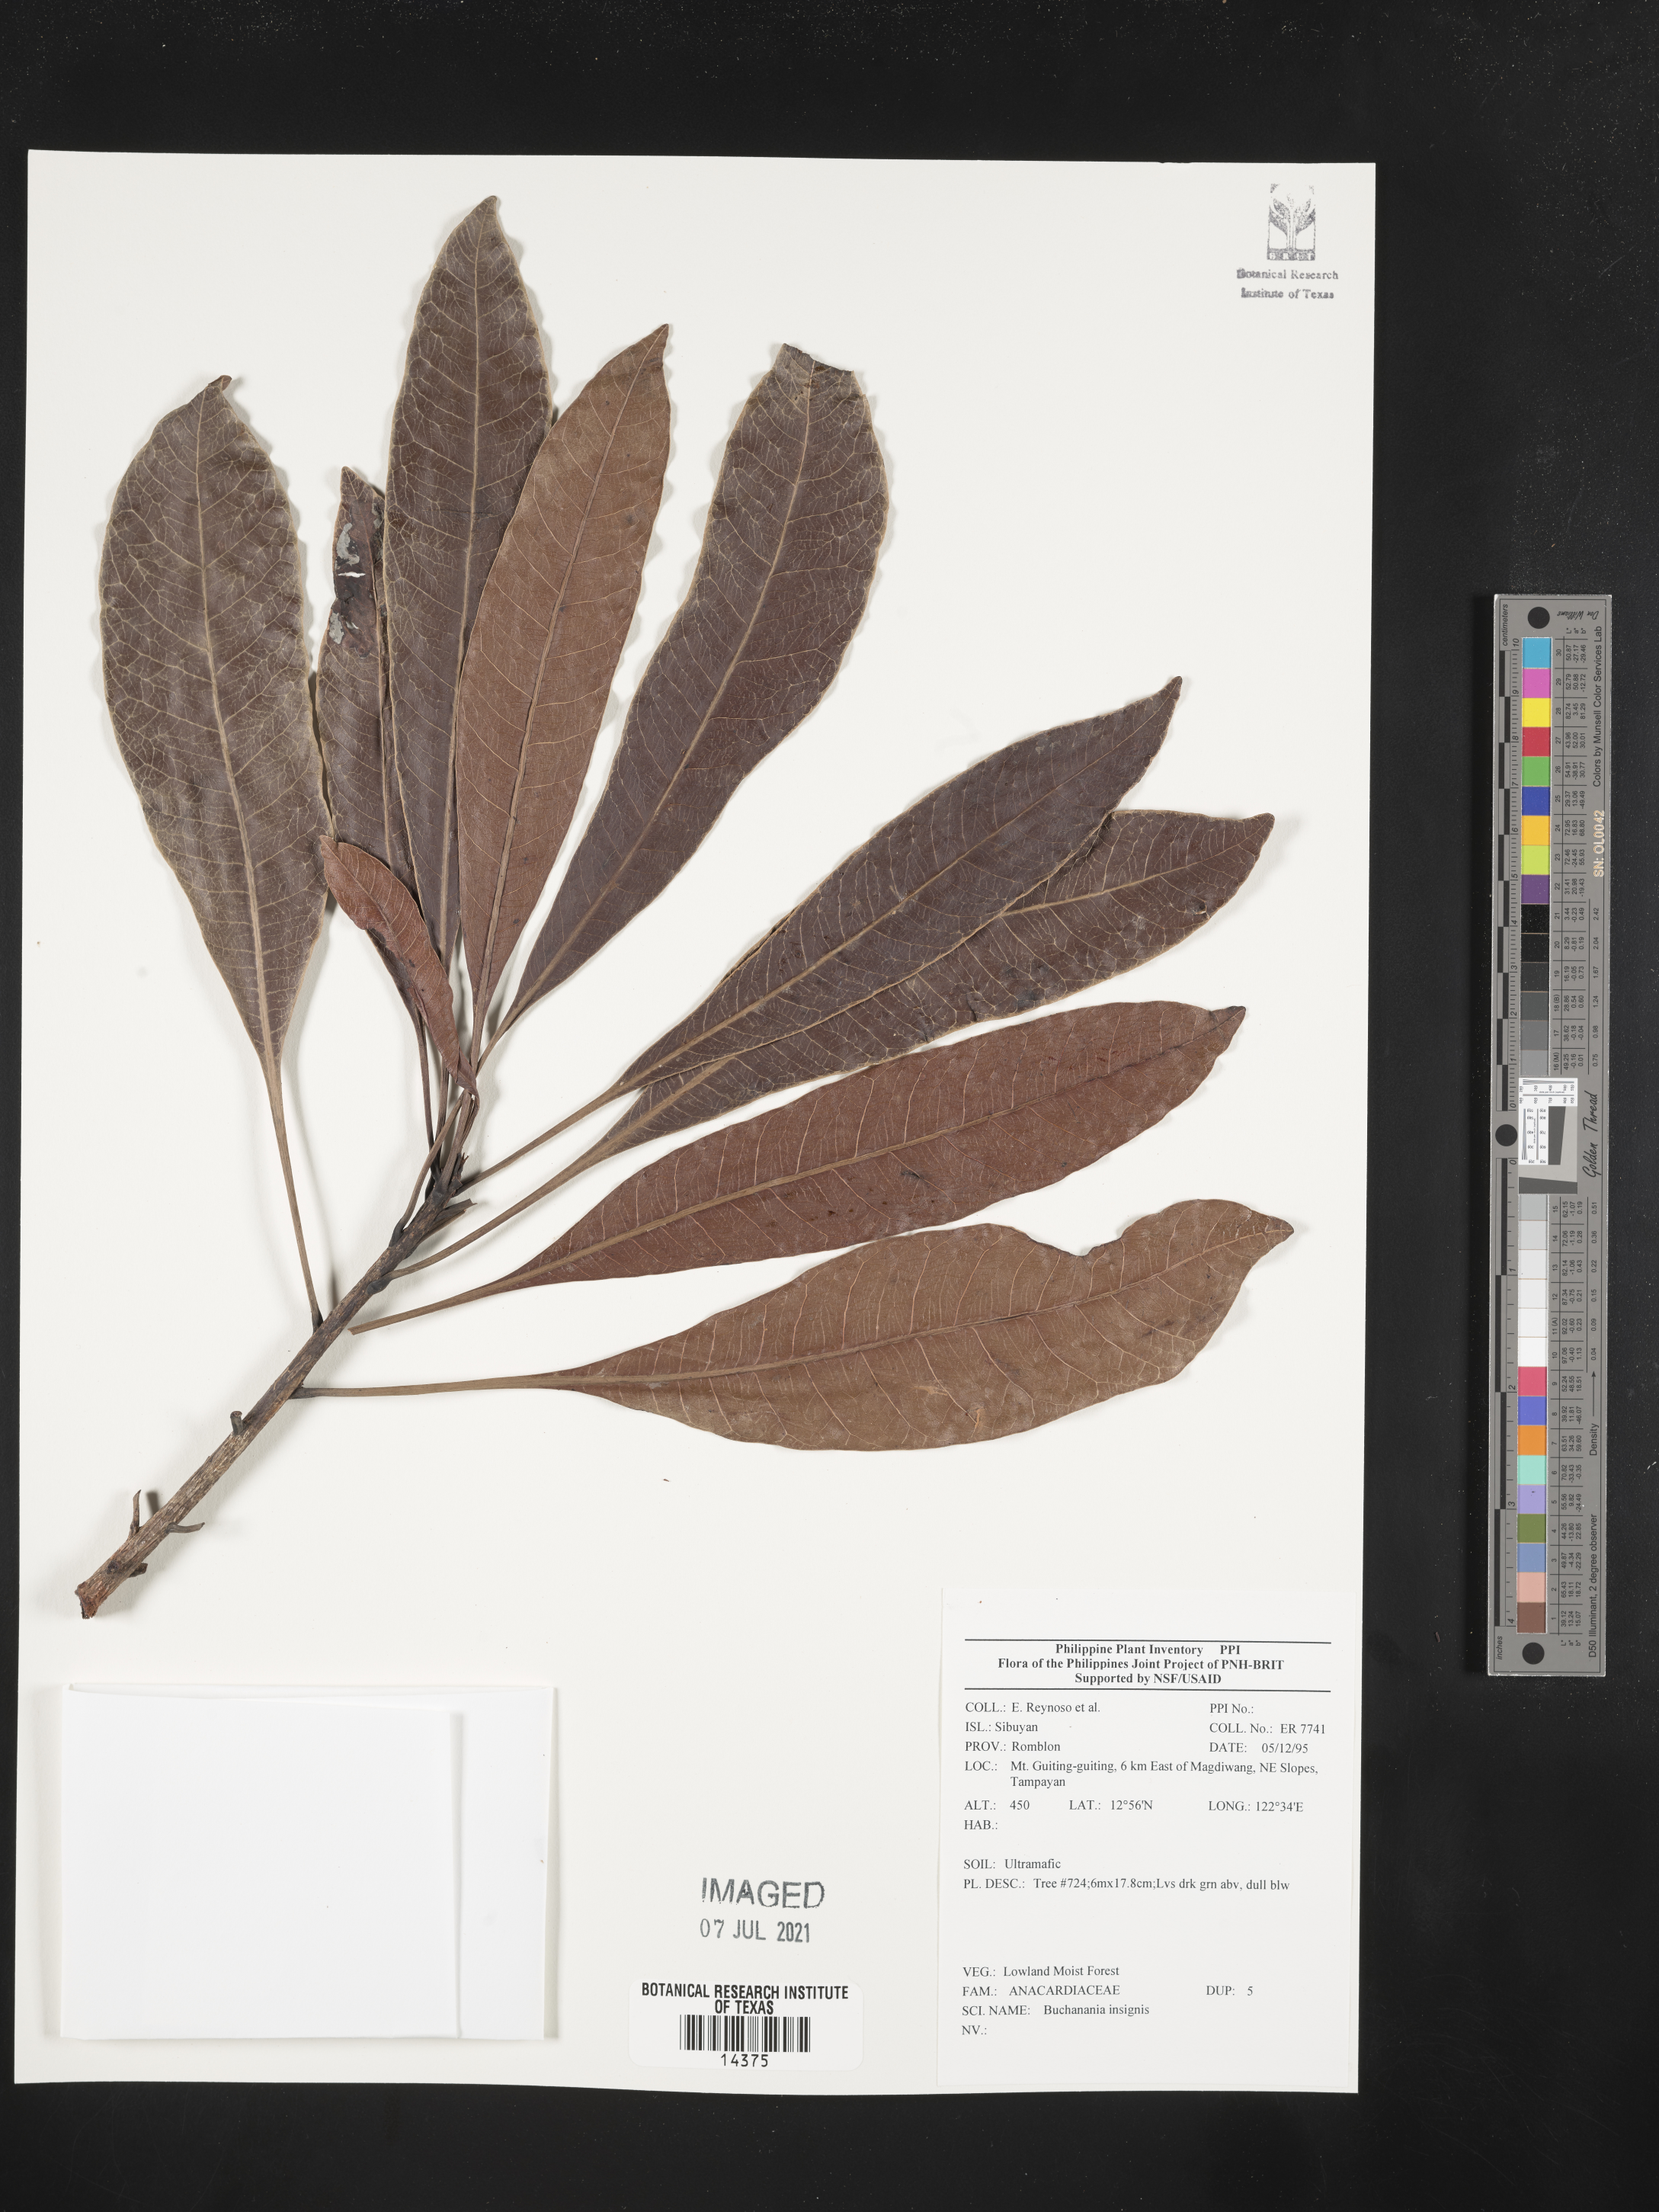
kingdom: Plantae
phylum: Tracheophyta
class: Magnoliopsida
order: Sapindales
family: Anacardiaceae
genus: Buchanania
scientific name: Buchanania insignis
